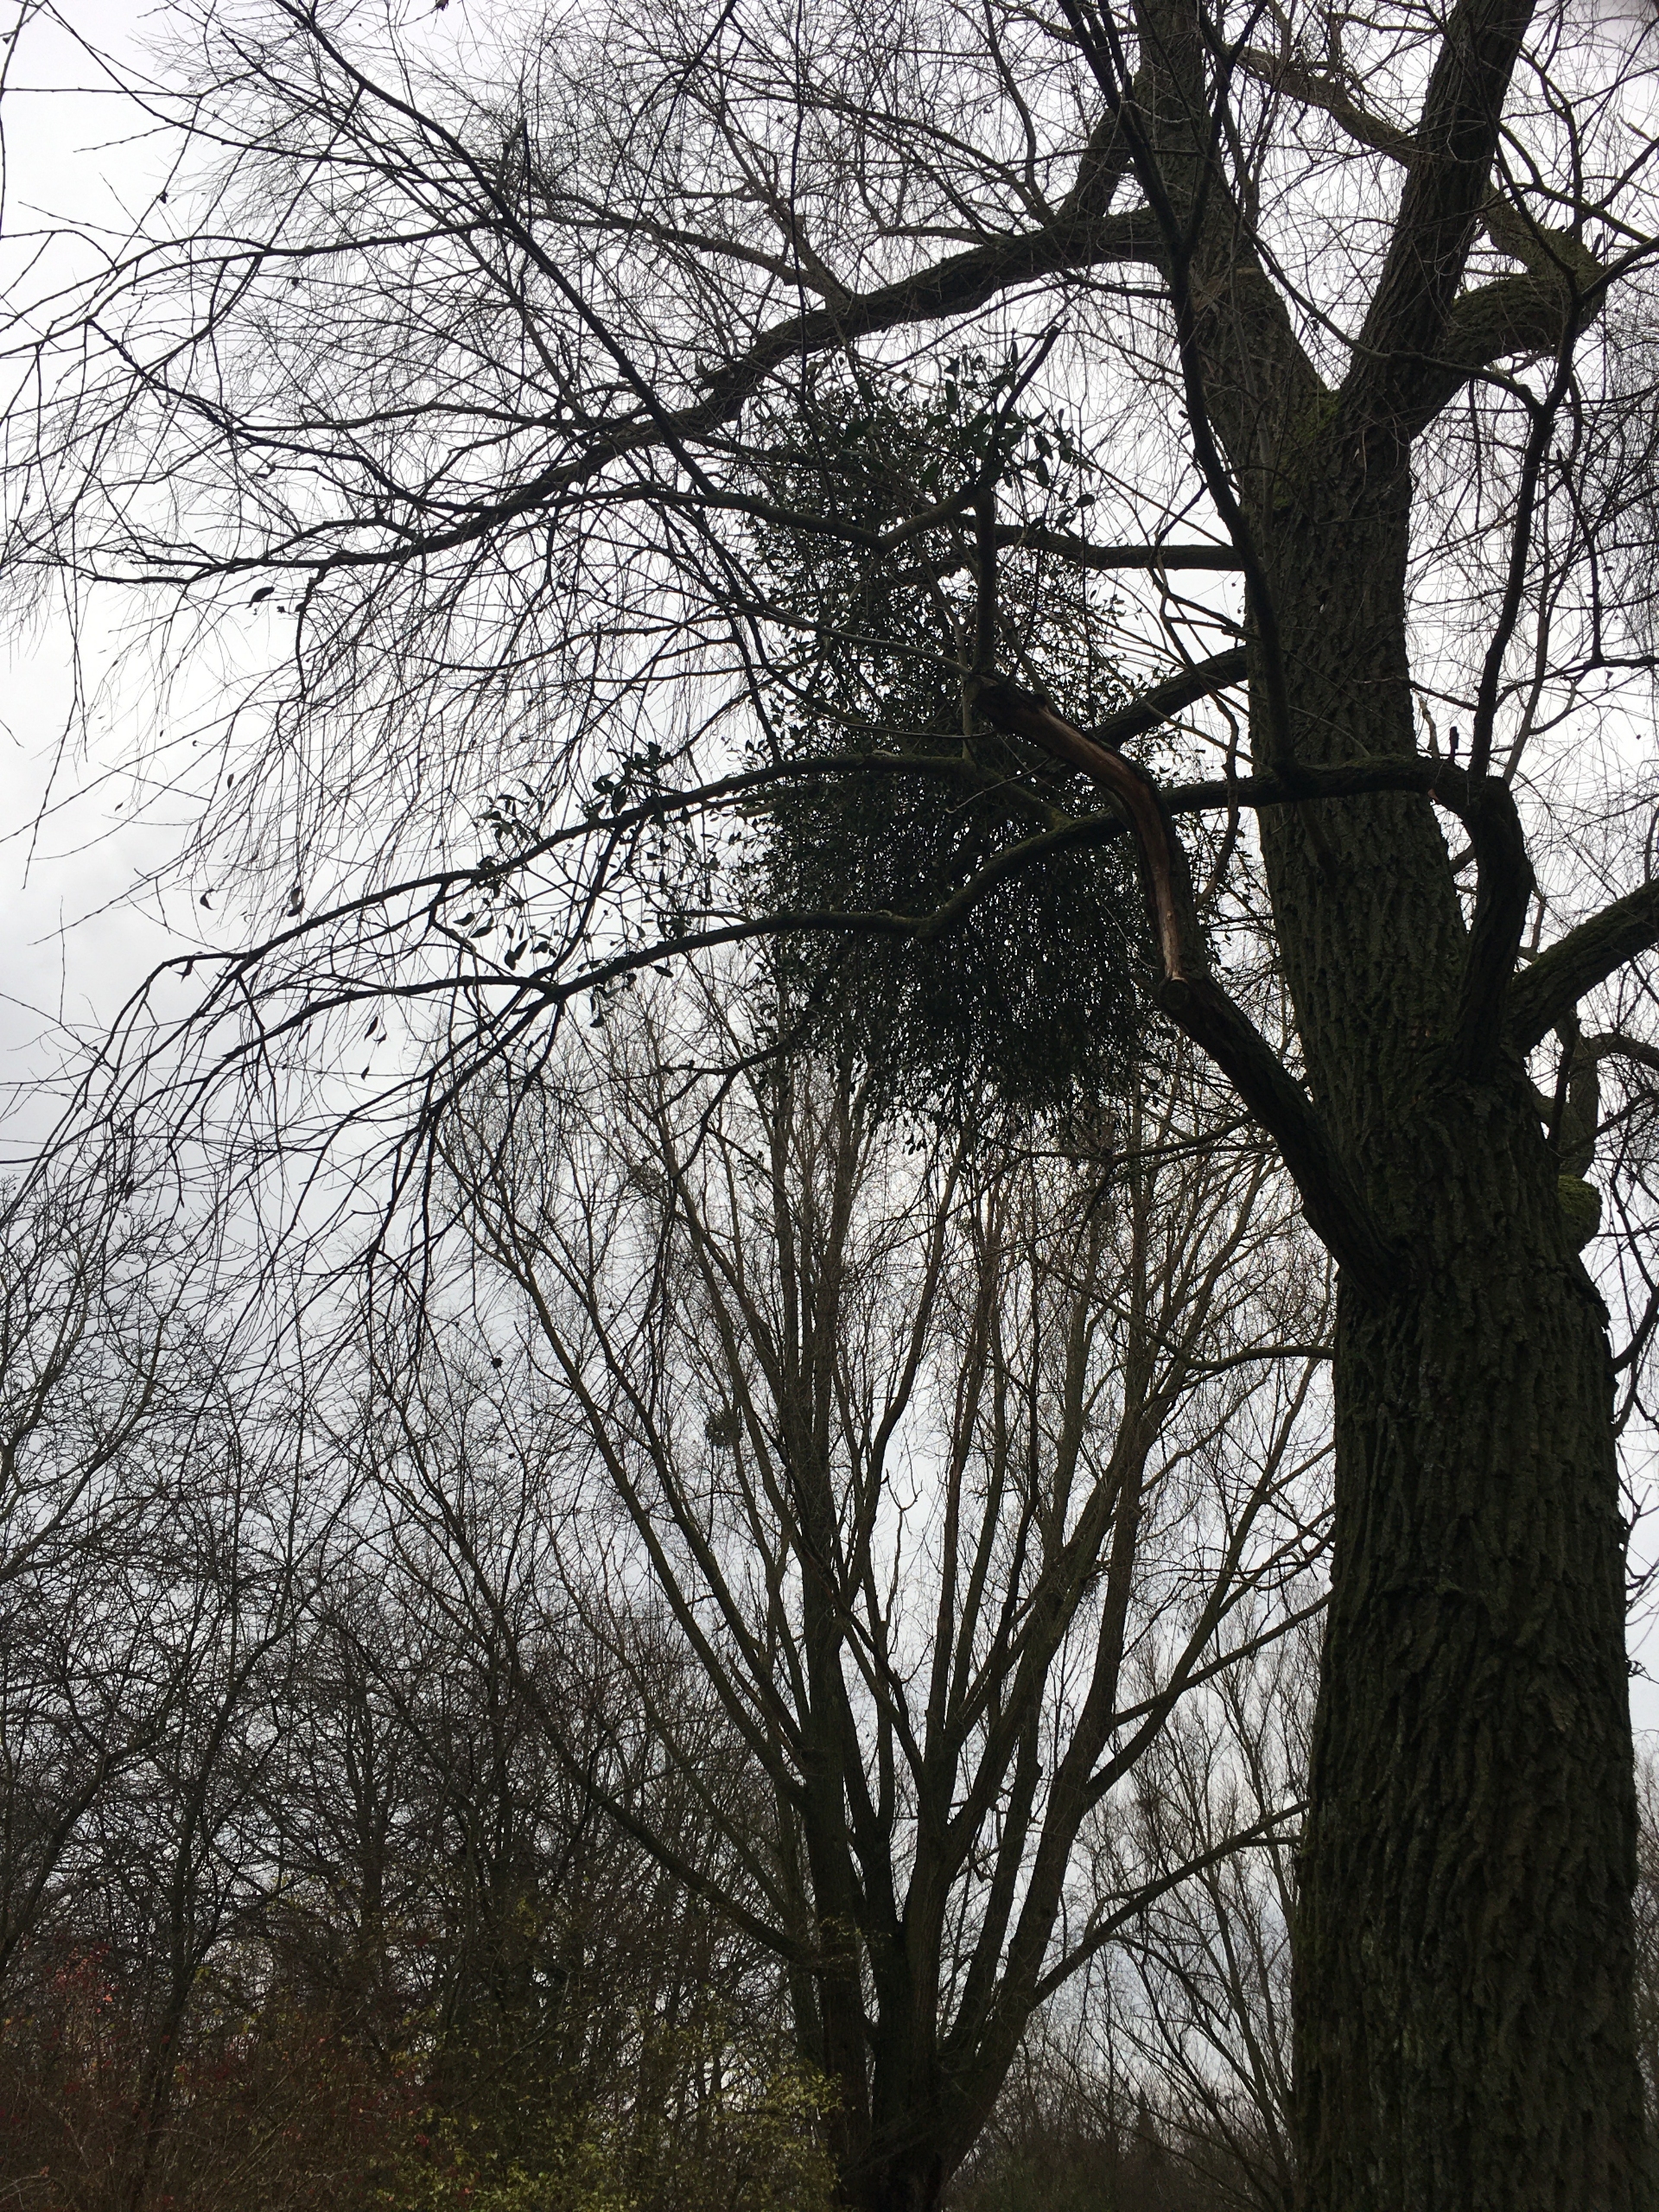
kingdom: Plantae
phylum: Tracheophyta
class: Magnoliopsida
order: Santalales
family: Viscaceae
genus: Viscum
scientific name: Viscum album
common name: Mistelten
